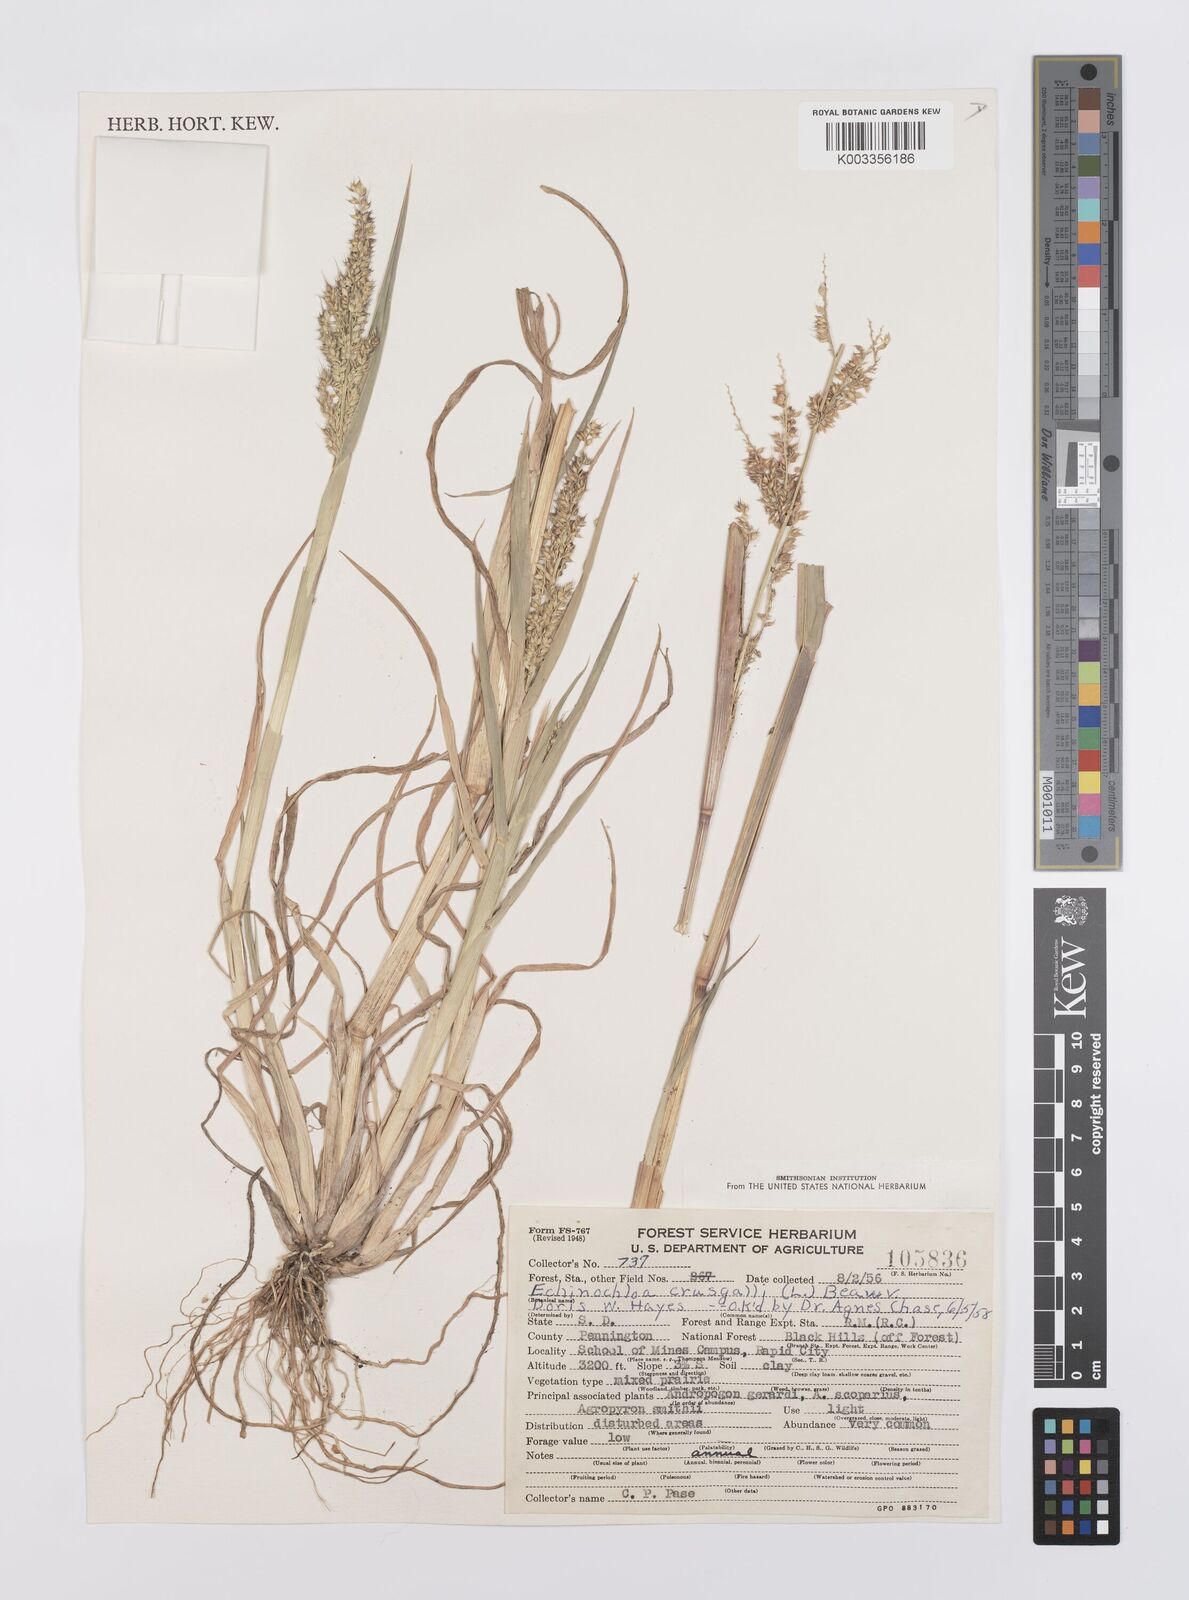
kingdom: Plantae
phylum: Tracheophyta
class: Liliopsida
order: Poales
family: Poaceae
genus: Echinochloa
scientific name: Echinochloa crus-galli
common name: Cockspur
